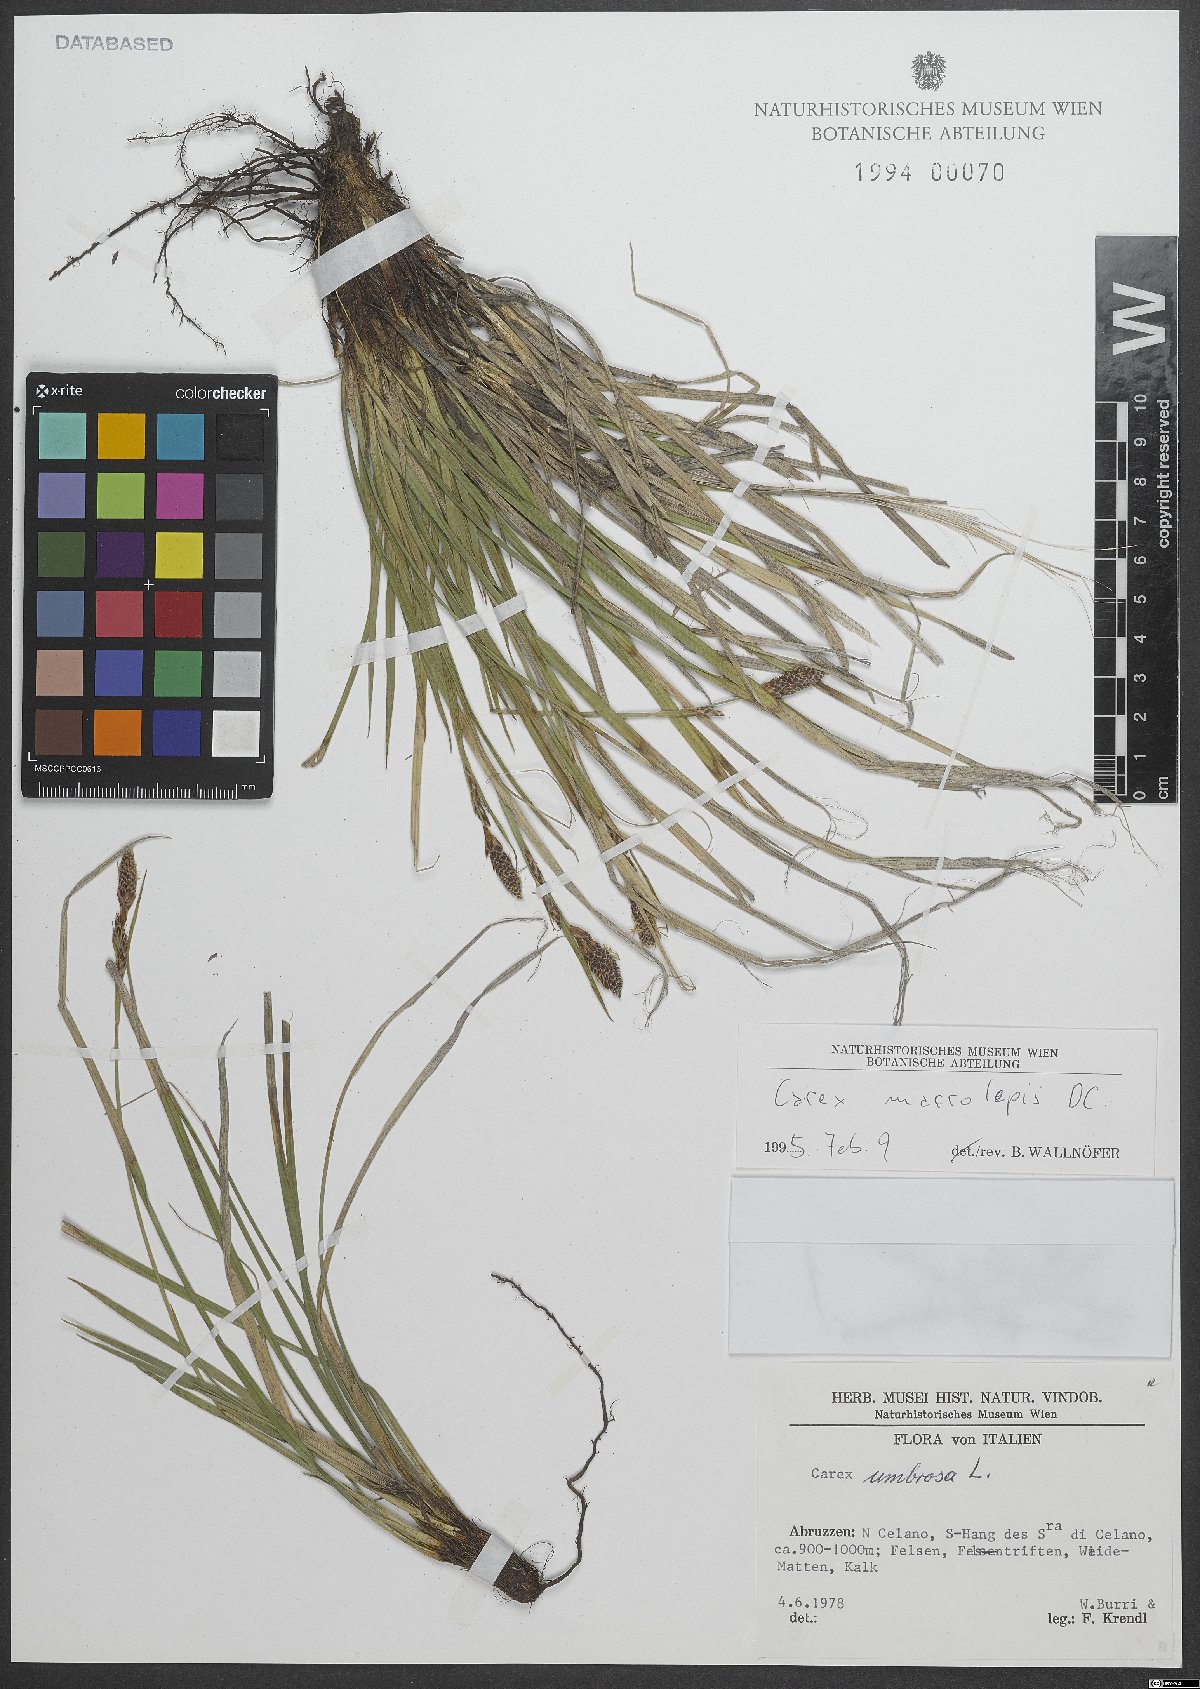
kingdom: Plantae
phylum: Tracheophyta
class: Liliopsida
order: Poales
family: Cyperaceae
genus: Carex
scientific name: Carex macrolepis
